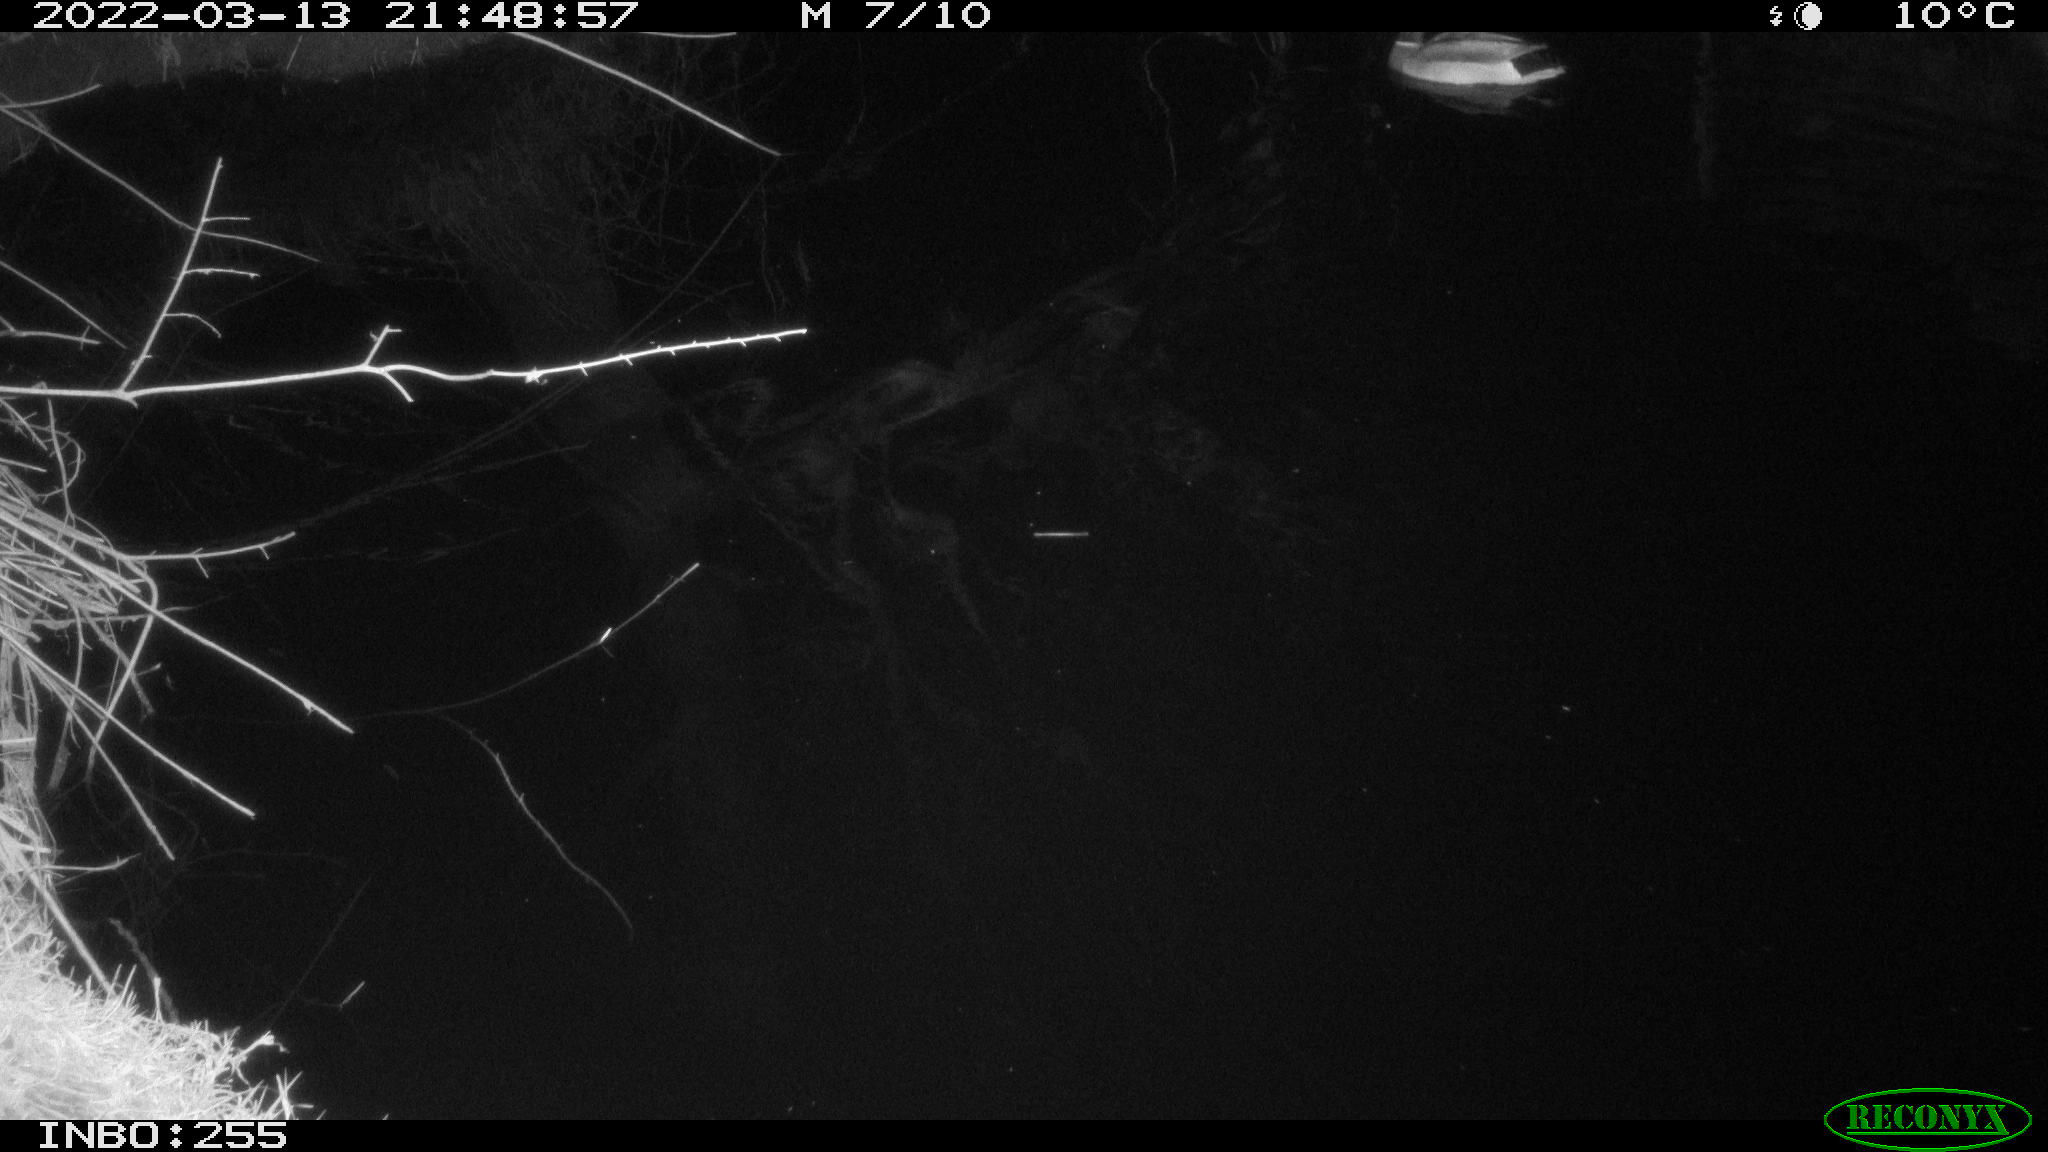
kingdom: Animalia
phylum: Chordata
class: Aves
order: Anseriformes
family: Anatidae
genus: Anas
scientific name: Anas platyrhynchos
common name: Mallard
